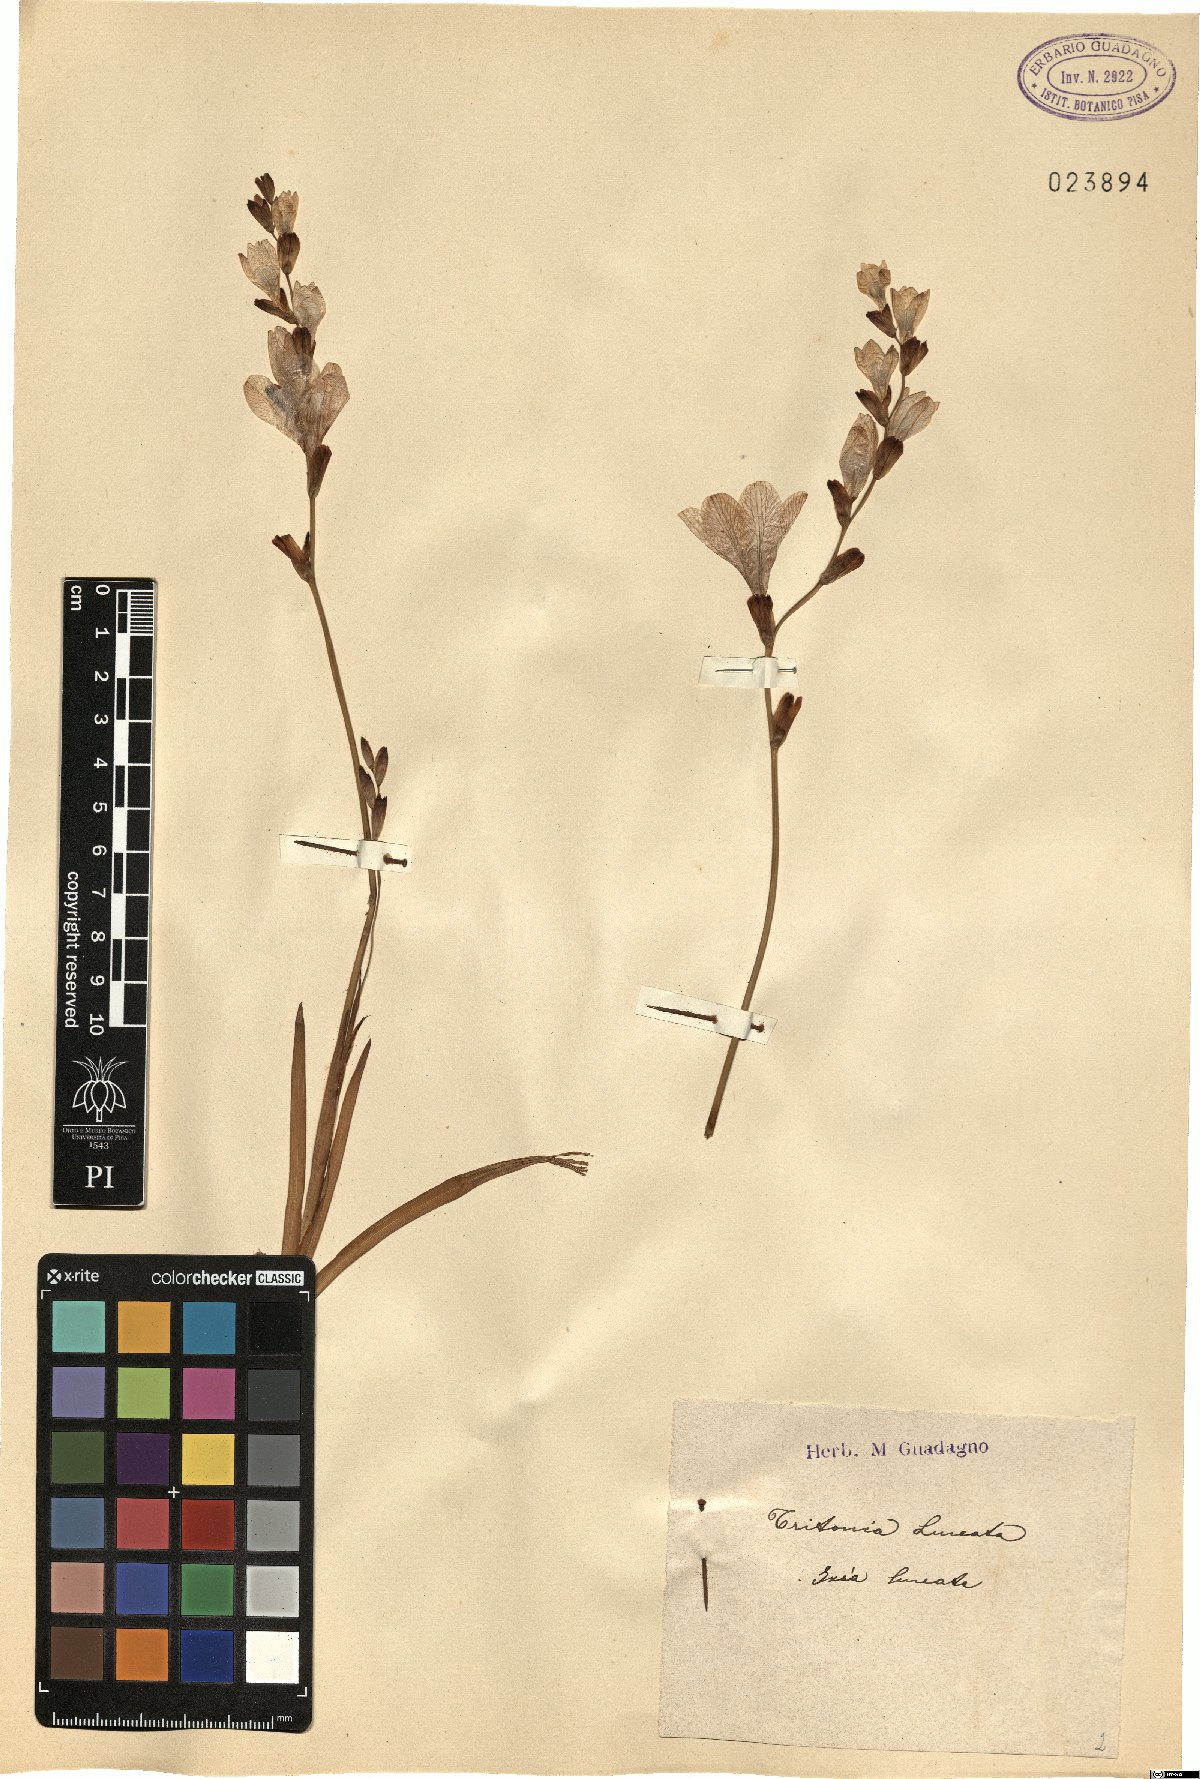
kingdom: Plantae
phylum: Tracheophyta
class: Liliopsida
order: Asparagales
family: Iridaceae
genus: Tritonia
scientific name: Tritonia gladiolaris
